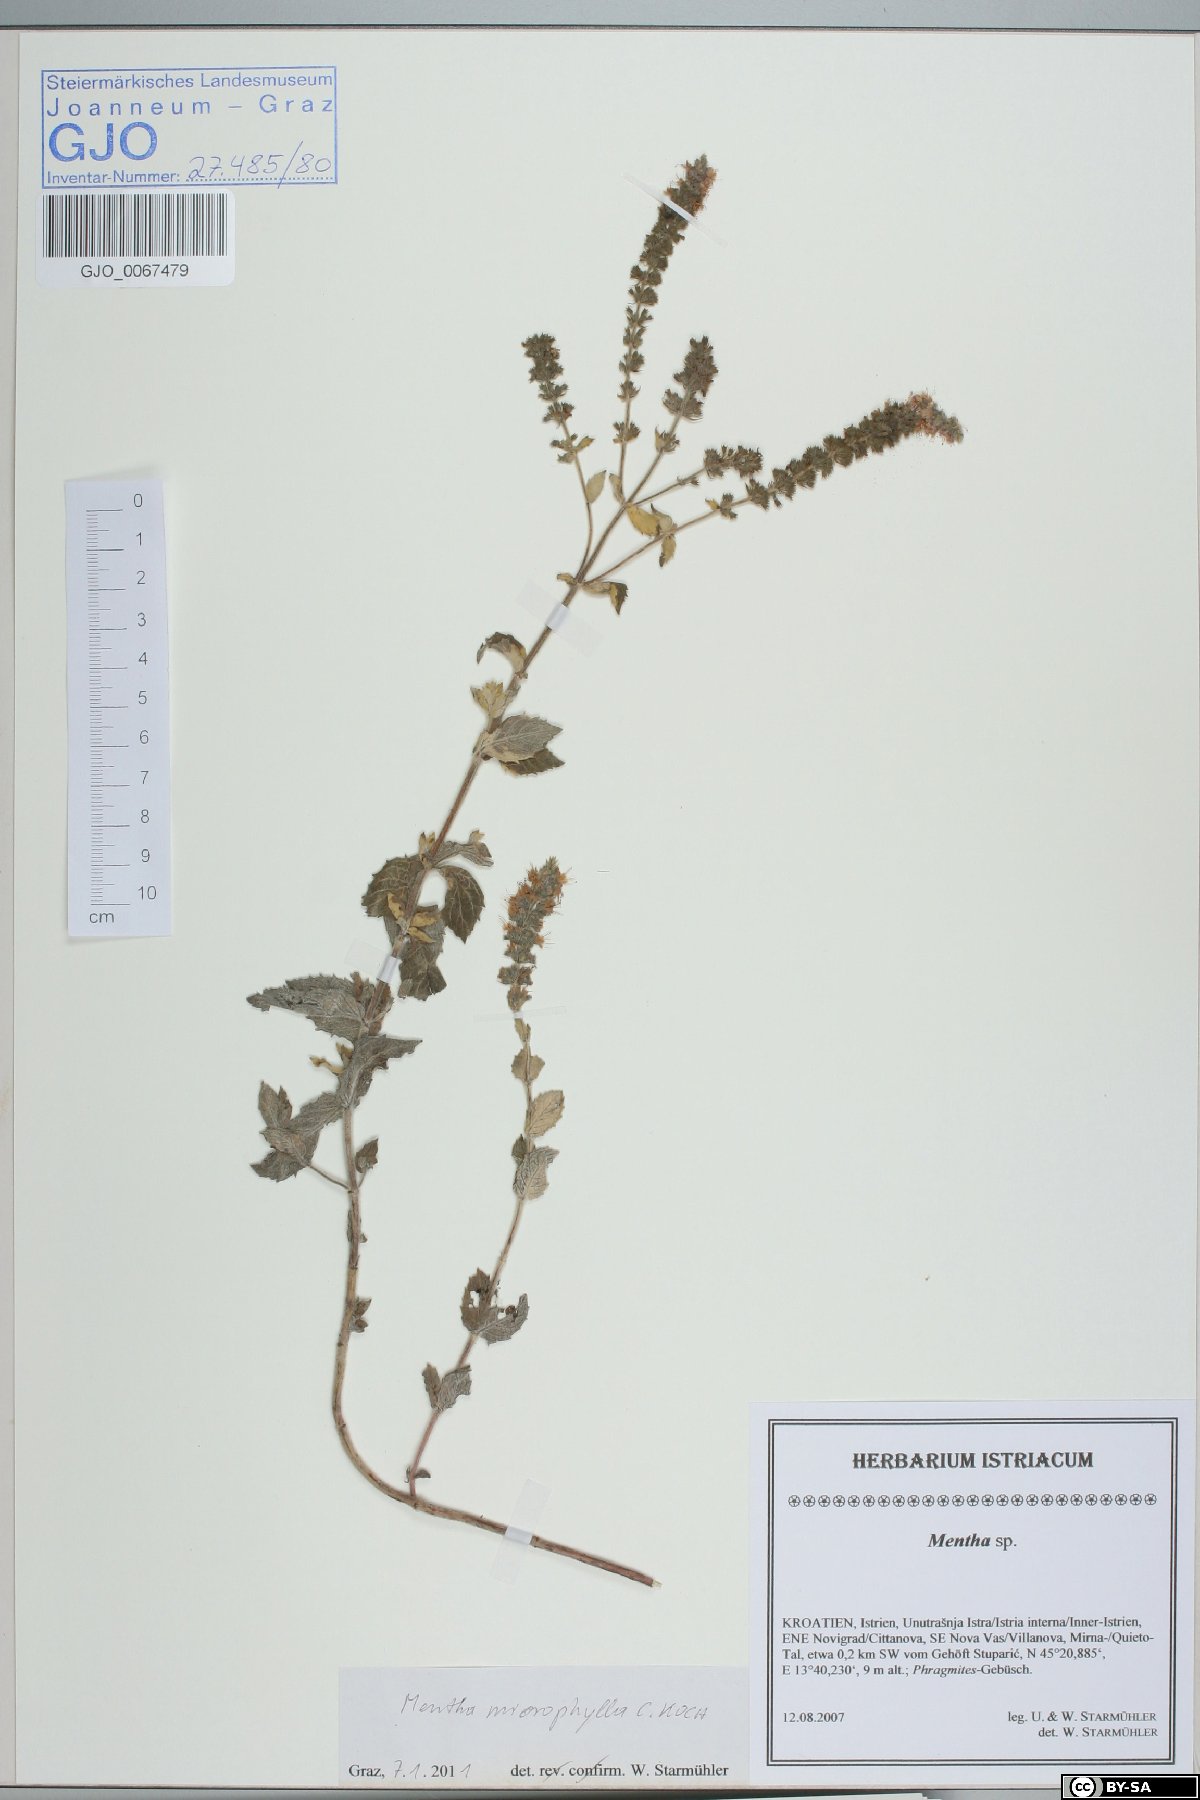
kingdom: Plantae
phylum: Tracheophyta
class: Magnoliopsida
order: Lamiales
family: Lamiaceae
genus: Mentha
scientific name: Mentha spicata
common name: Spearmint
